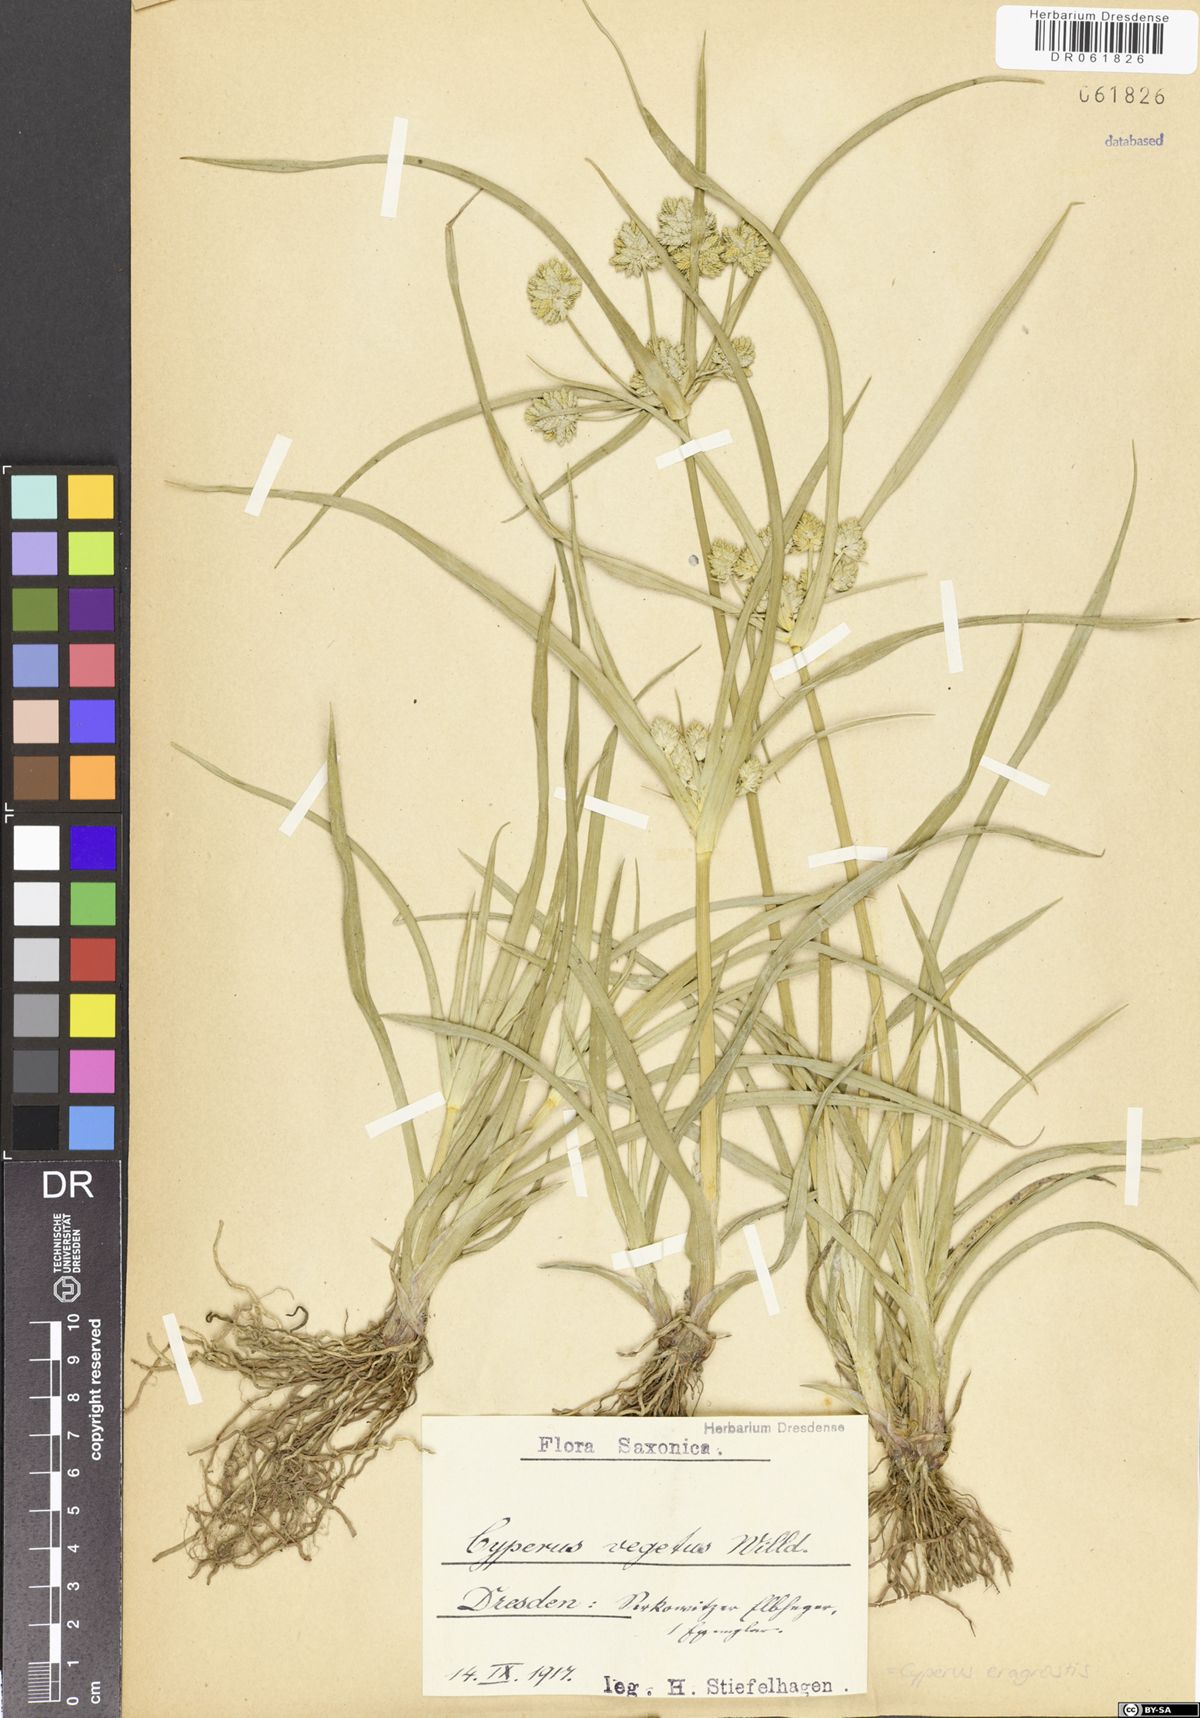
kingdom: Plantae
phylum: Tracheophyta
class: Liliopsida
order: Poales
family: Cyperaceae
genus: Cyperus
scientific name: Cyperus eragrostis
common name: Tall flatsedge
